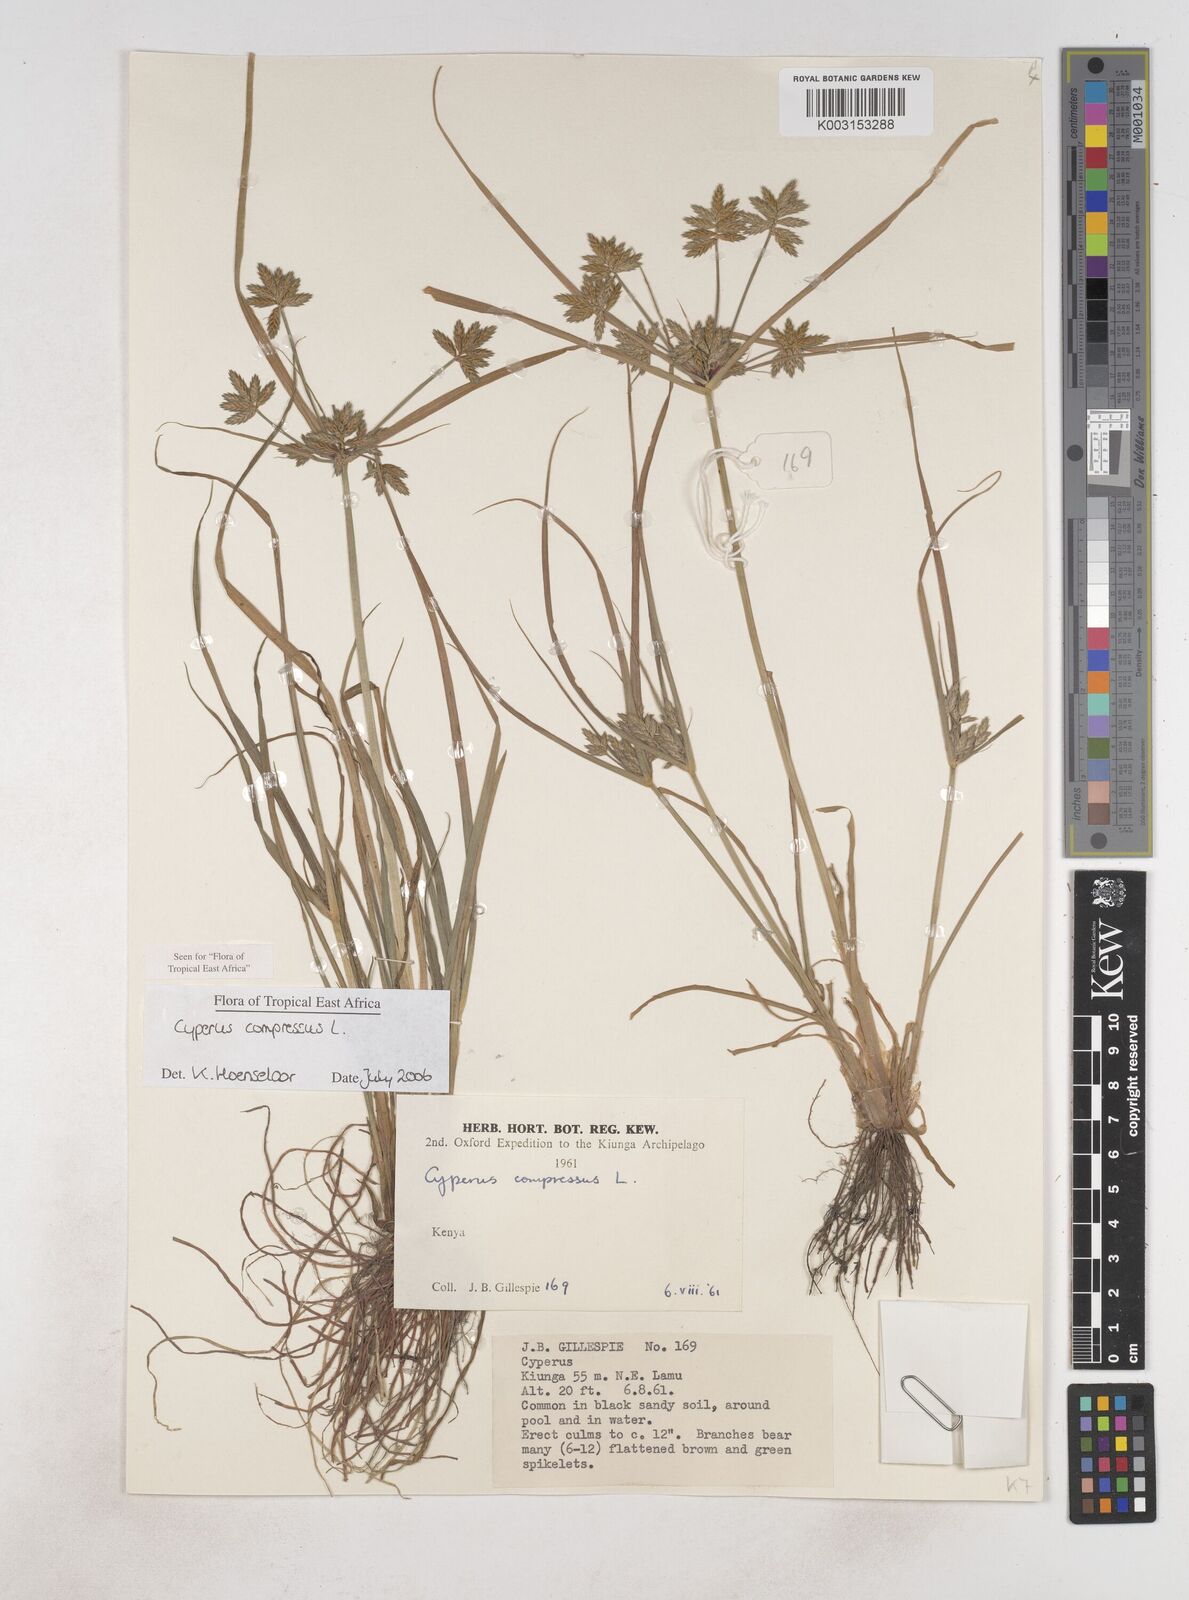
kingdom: Plantae
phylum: Tracheophyta
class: Liliopsida
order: Poales
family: Cyperaceae
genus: Cyperus
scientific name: Cyperus compressus
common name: Poorland flatsedge
